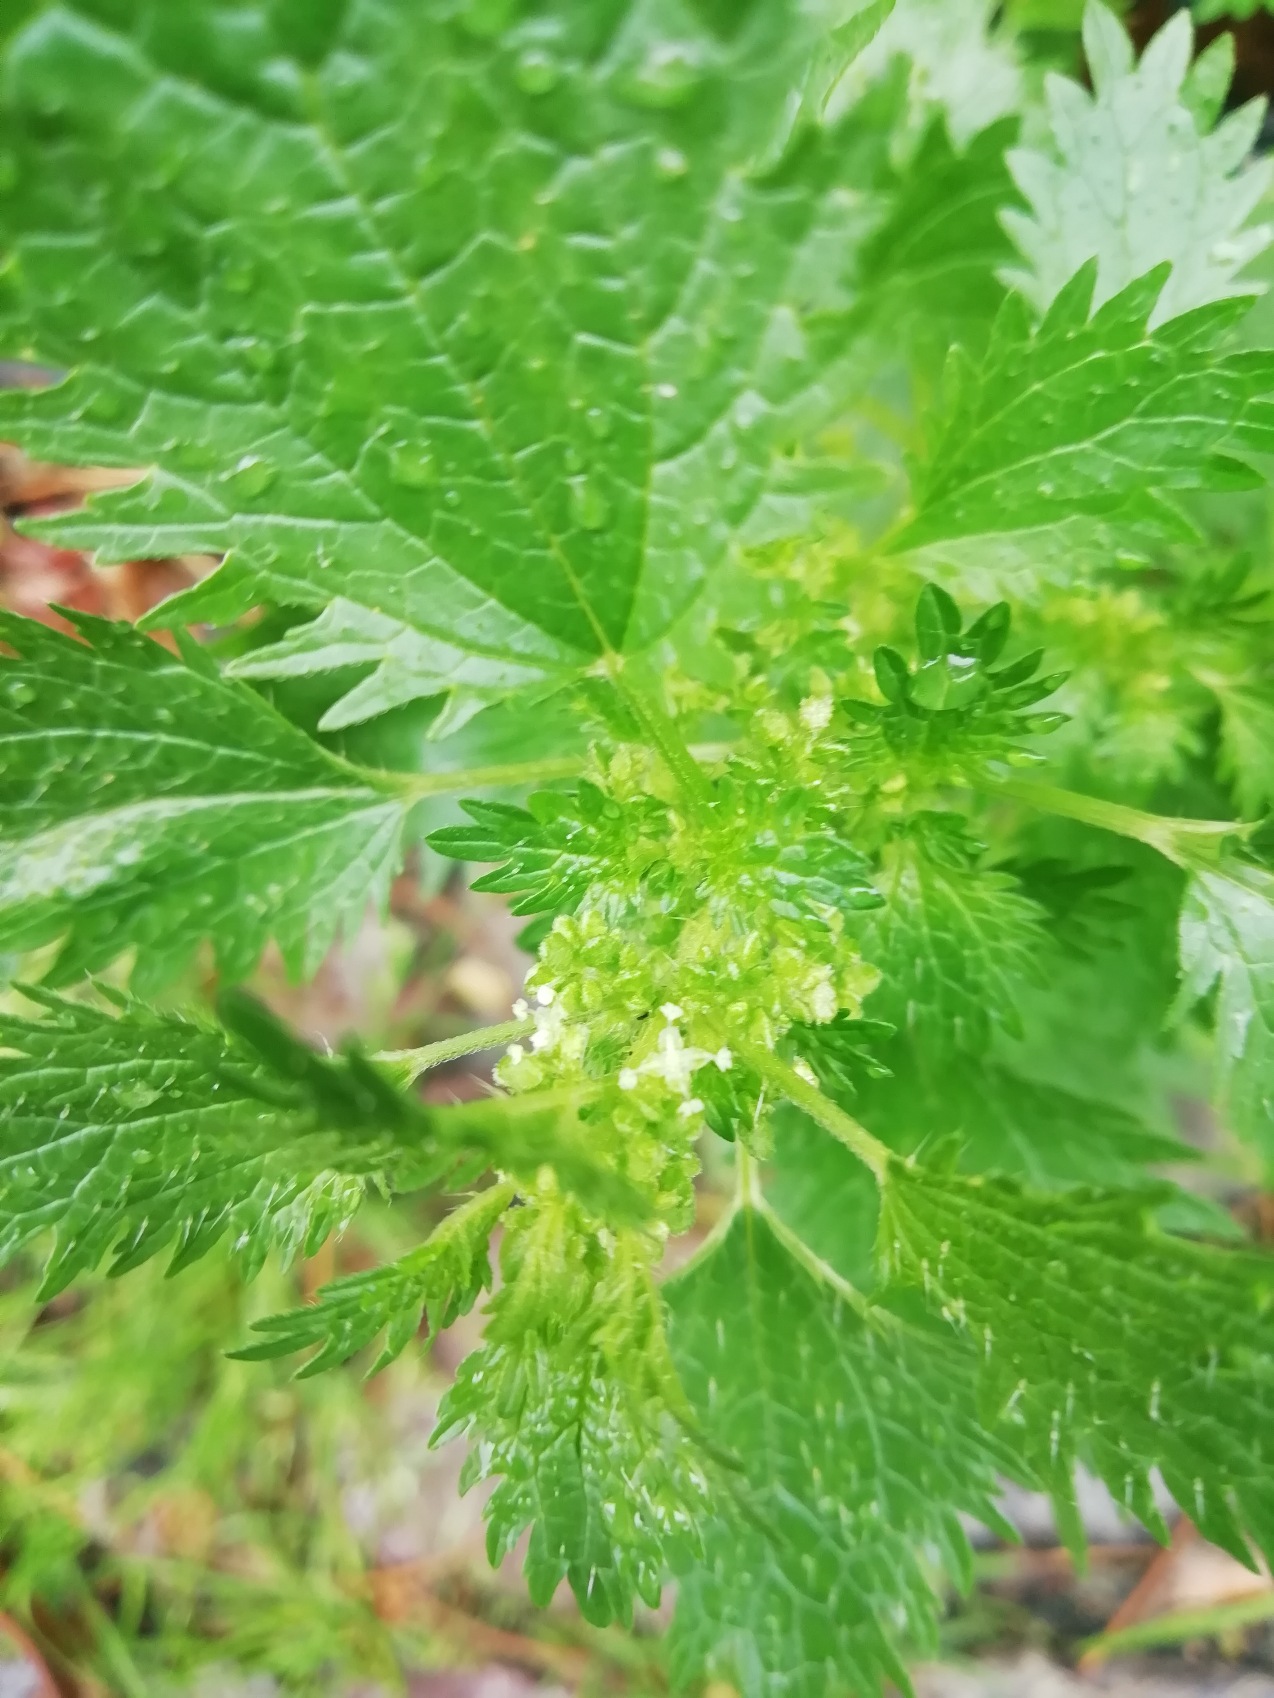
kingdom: Plantae
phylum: Tracheophyta
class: Magnoliopsida
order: Rosales
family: Urticaceae
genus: Urtica
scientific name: Urtica urens
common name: Liden nælde
